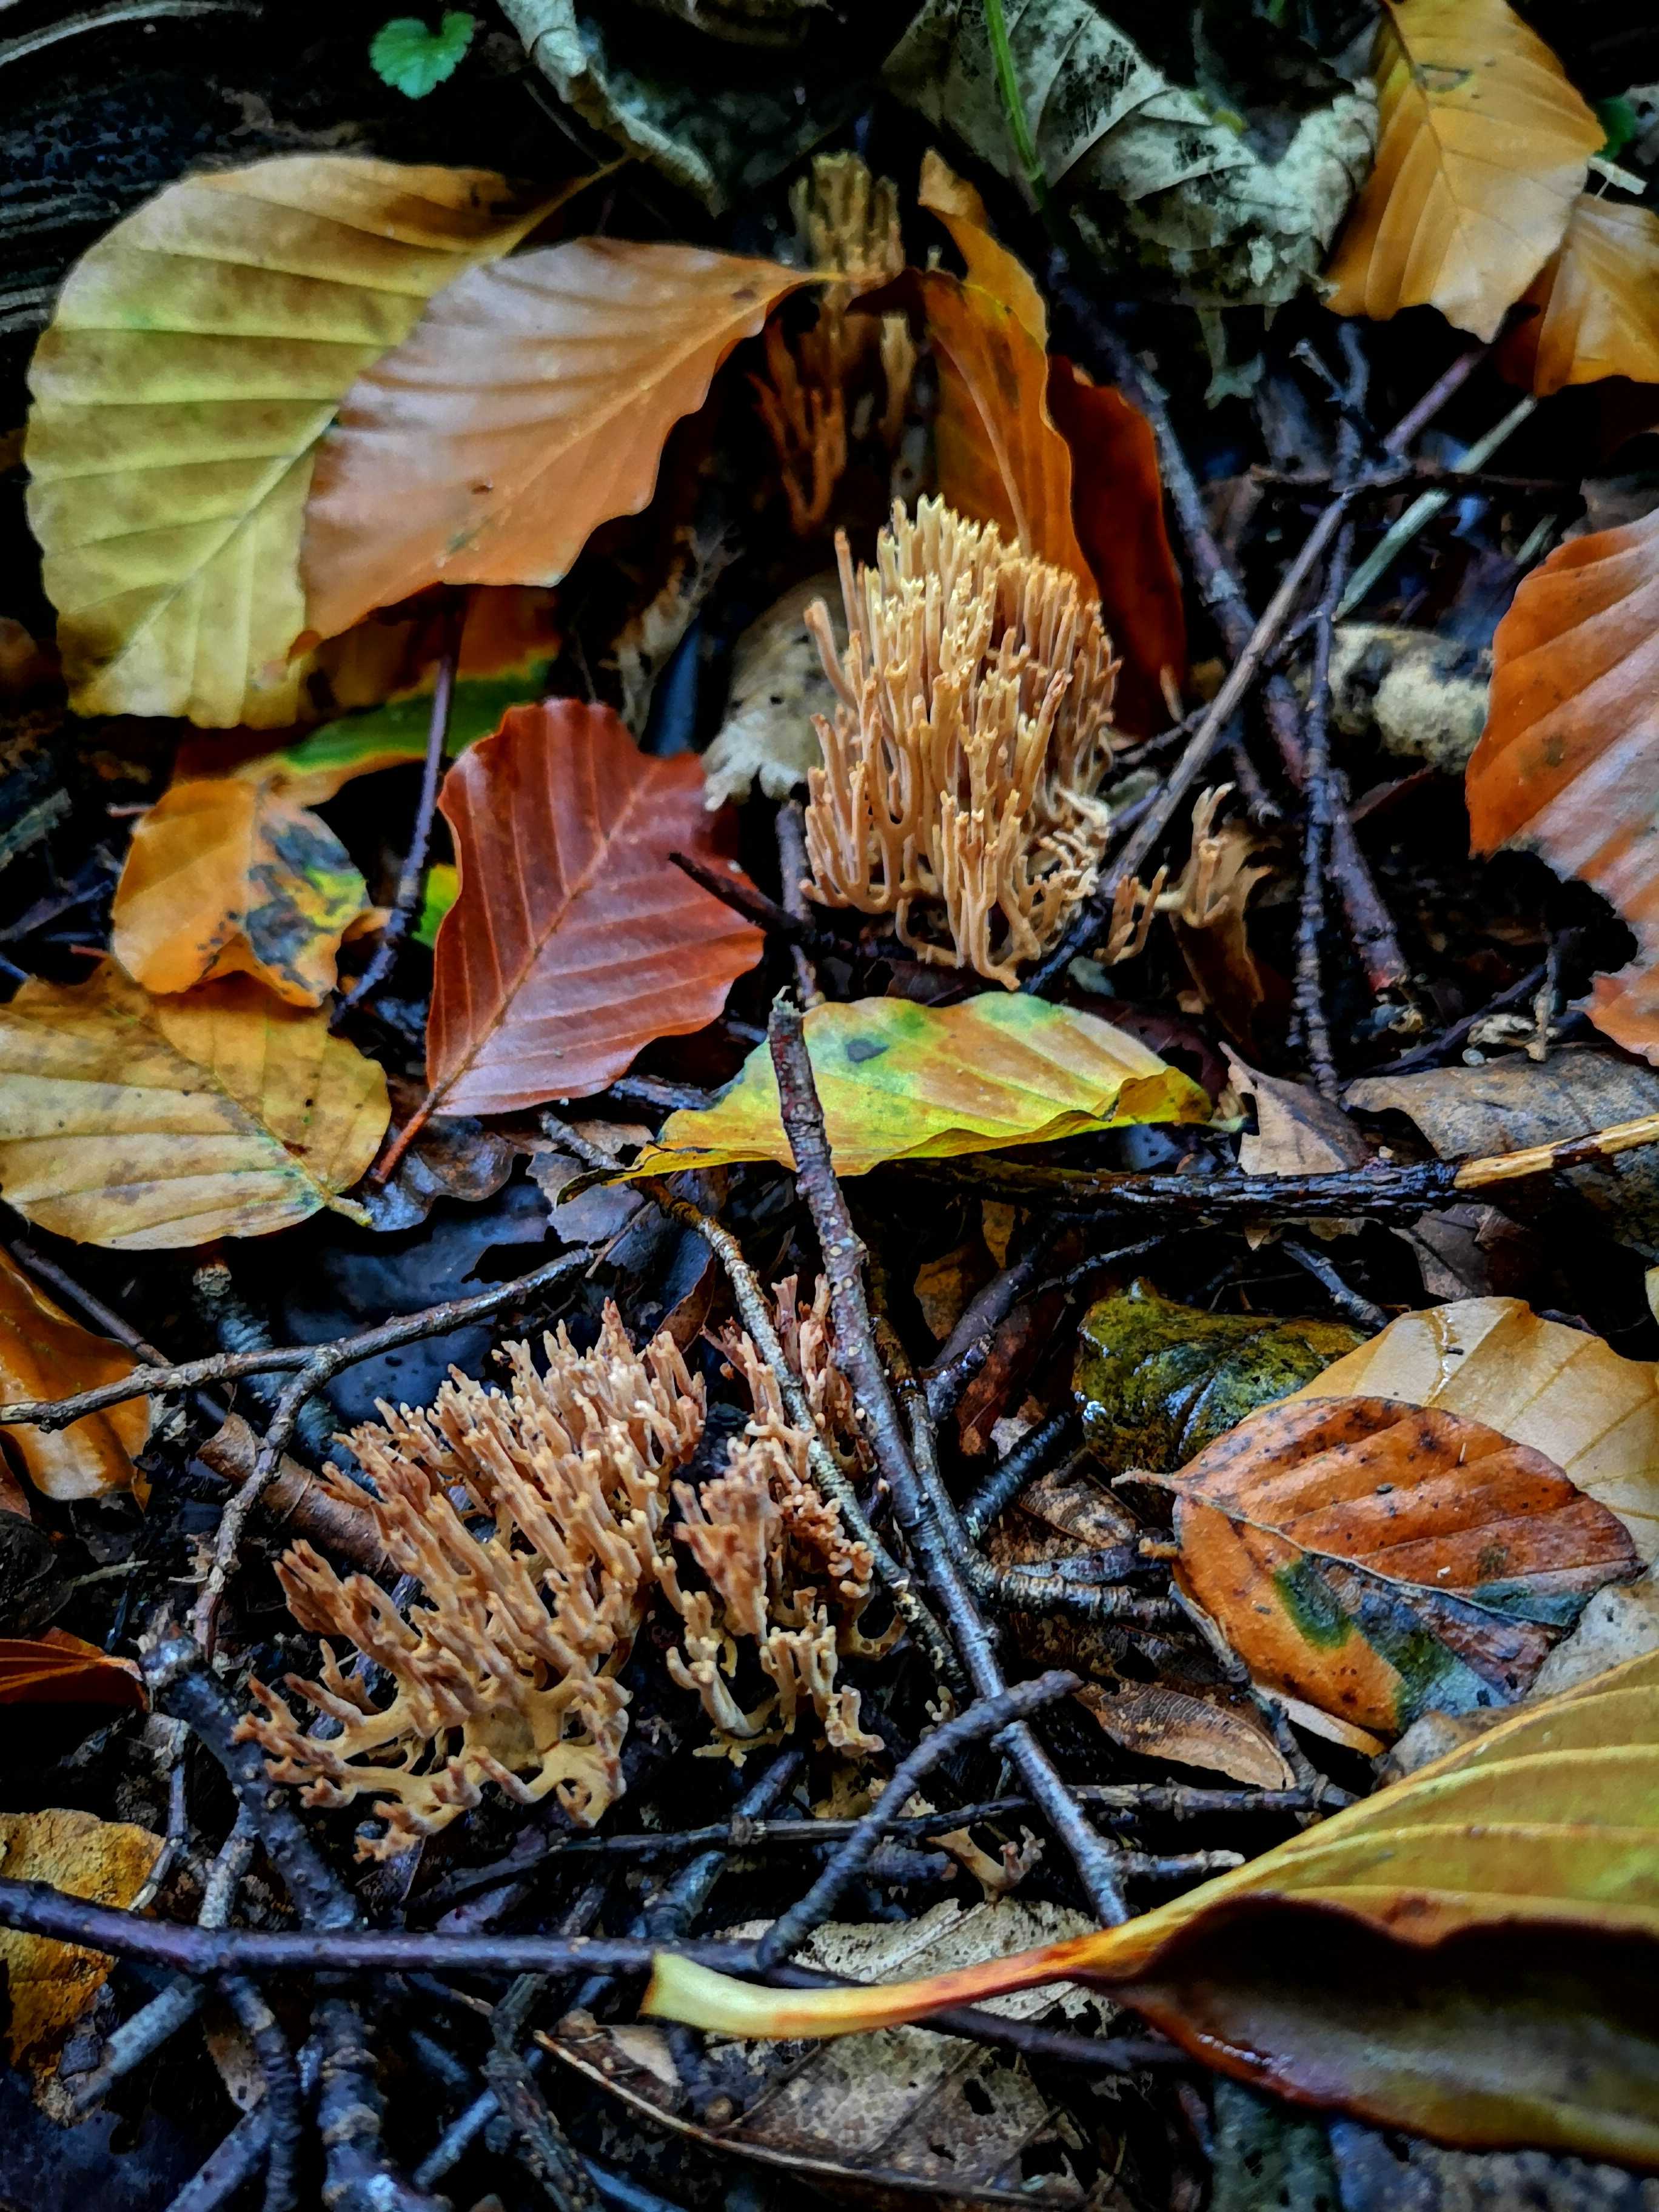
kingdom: Fungi
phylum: Basidiomycota
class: Agaricomycetes
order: Gomphales
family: Gomphaceae
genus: Ramaria
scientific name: Ramaria stricta
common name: rank koralsvamp
